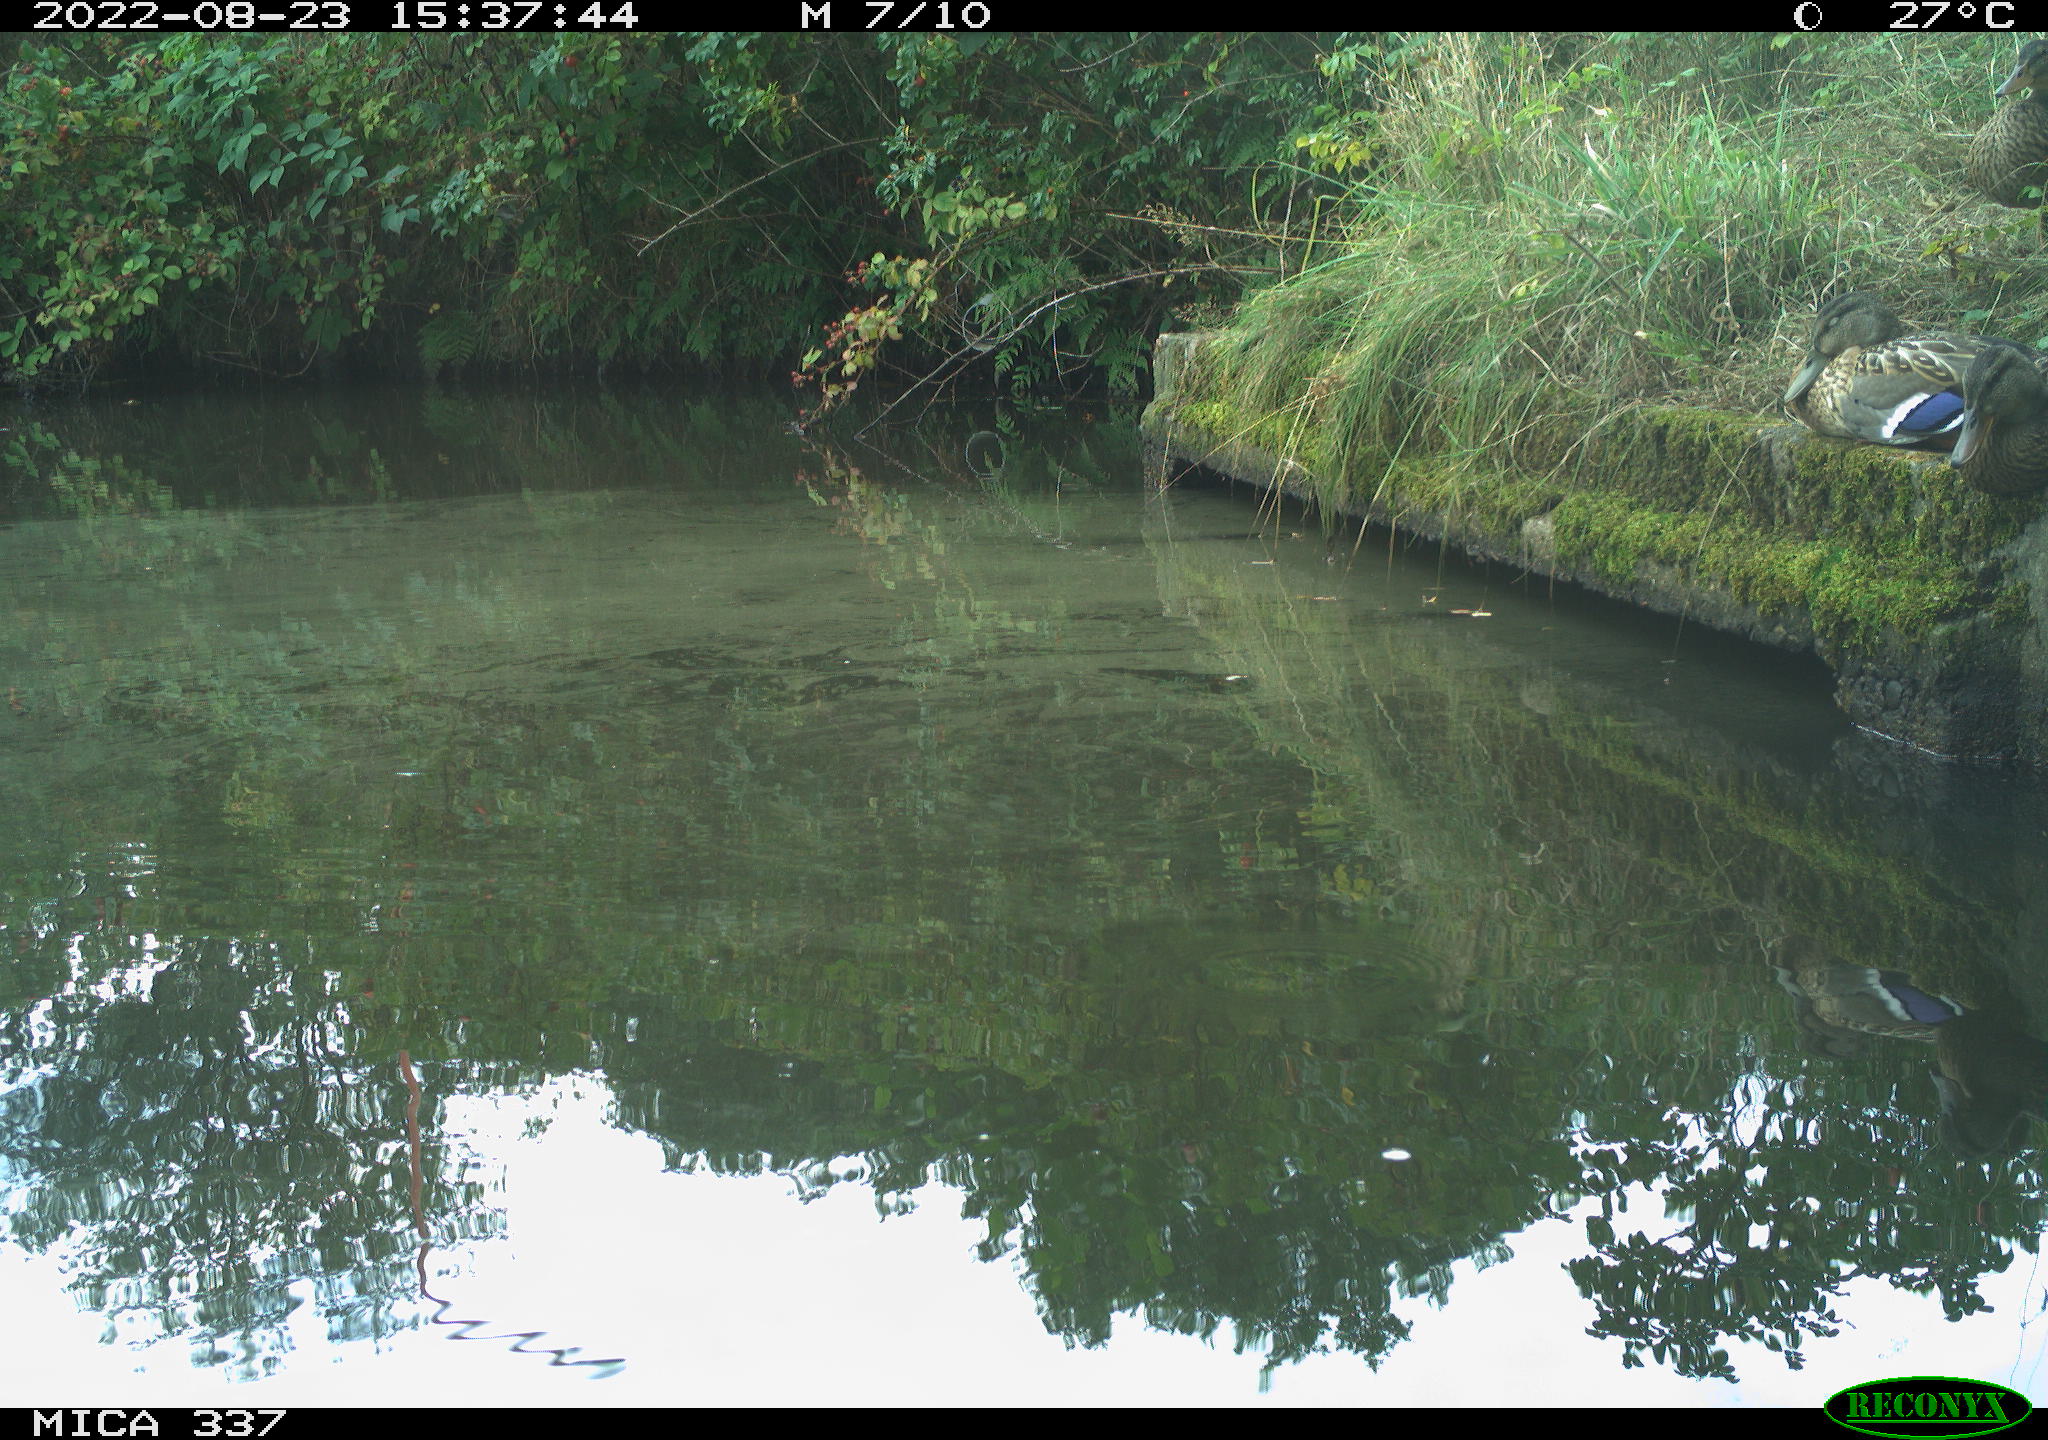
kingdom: Animalia
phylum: Chordata
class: Aves
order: Anseriformes
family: Anatidae
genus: Anas
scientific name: Anas platyrhynchos
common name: Mallard
